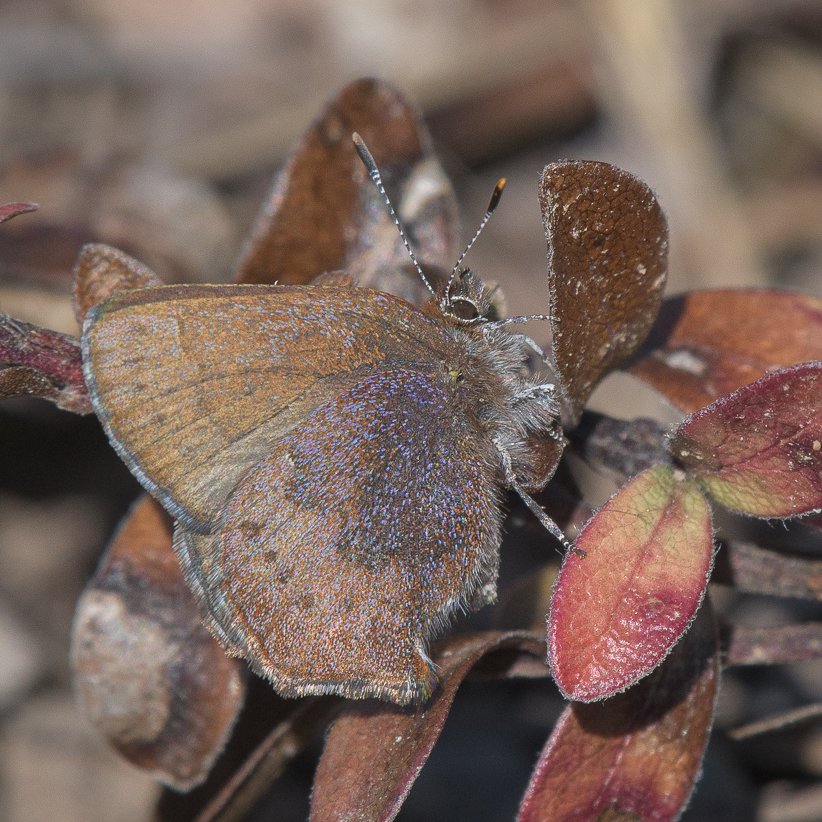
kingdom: Animalia
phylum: Arthropoda
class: Insecta
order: Lepidoptera
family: Lycaenidae
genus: Incisalia
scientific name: Incisalia irioides
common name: Brown Elfin
